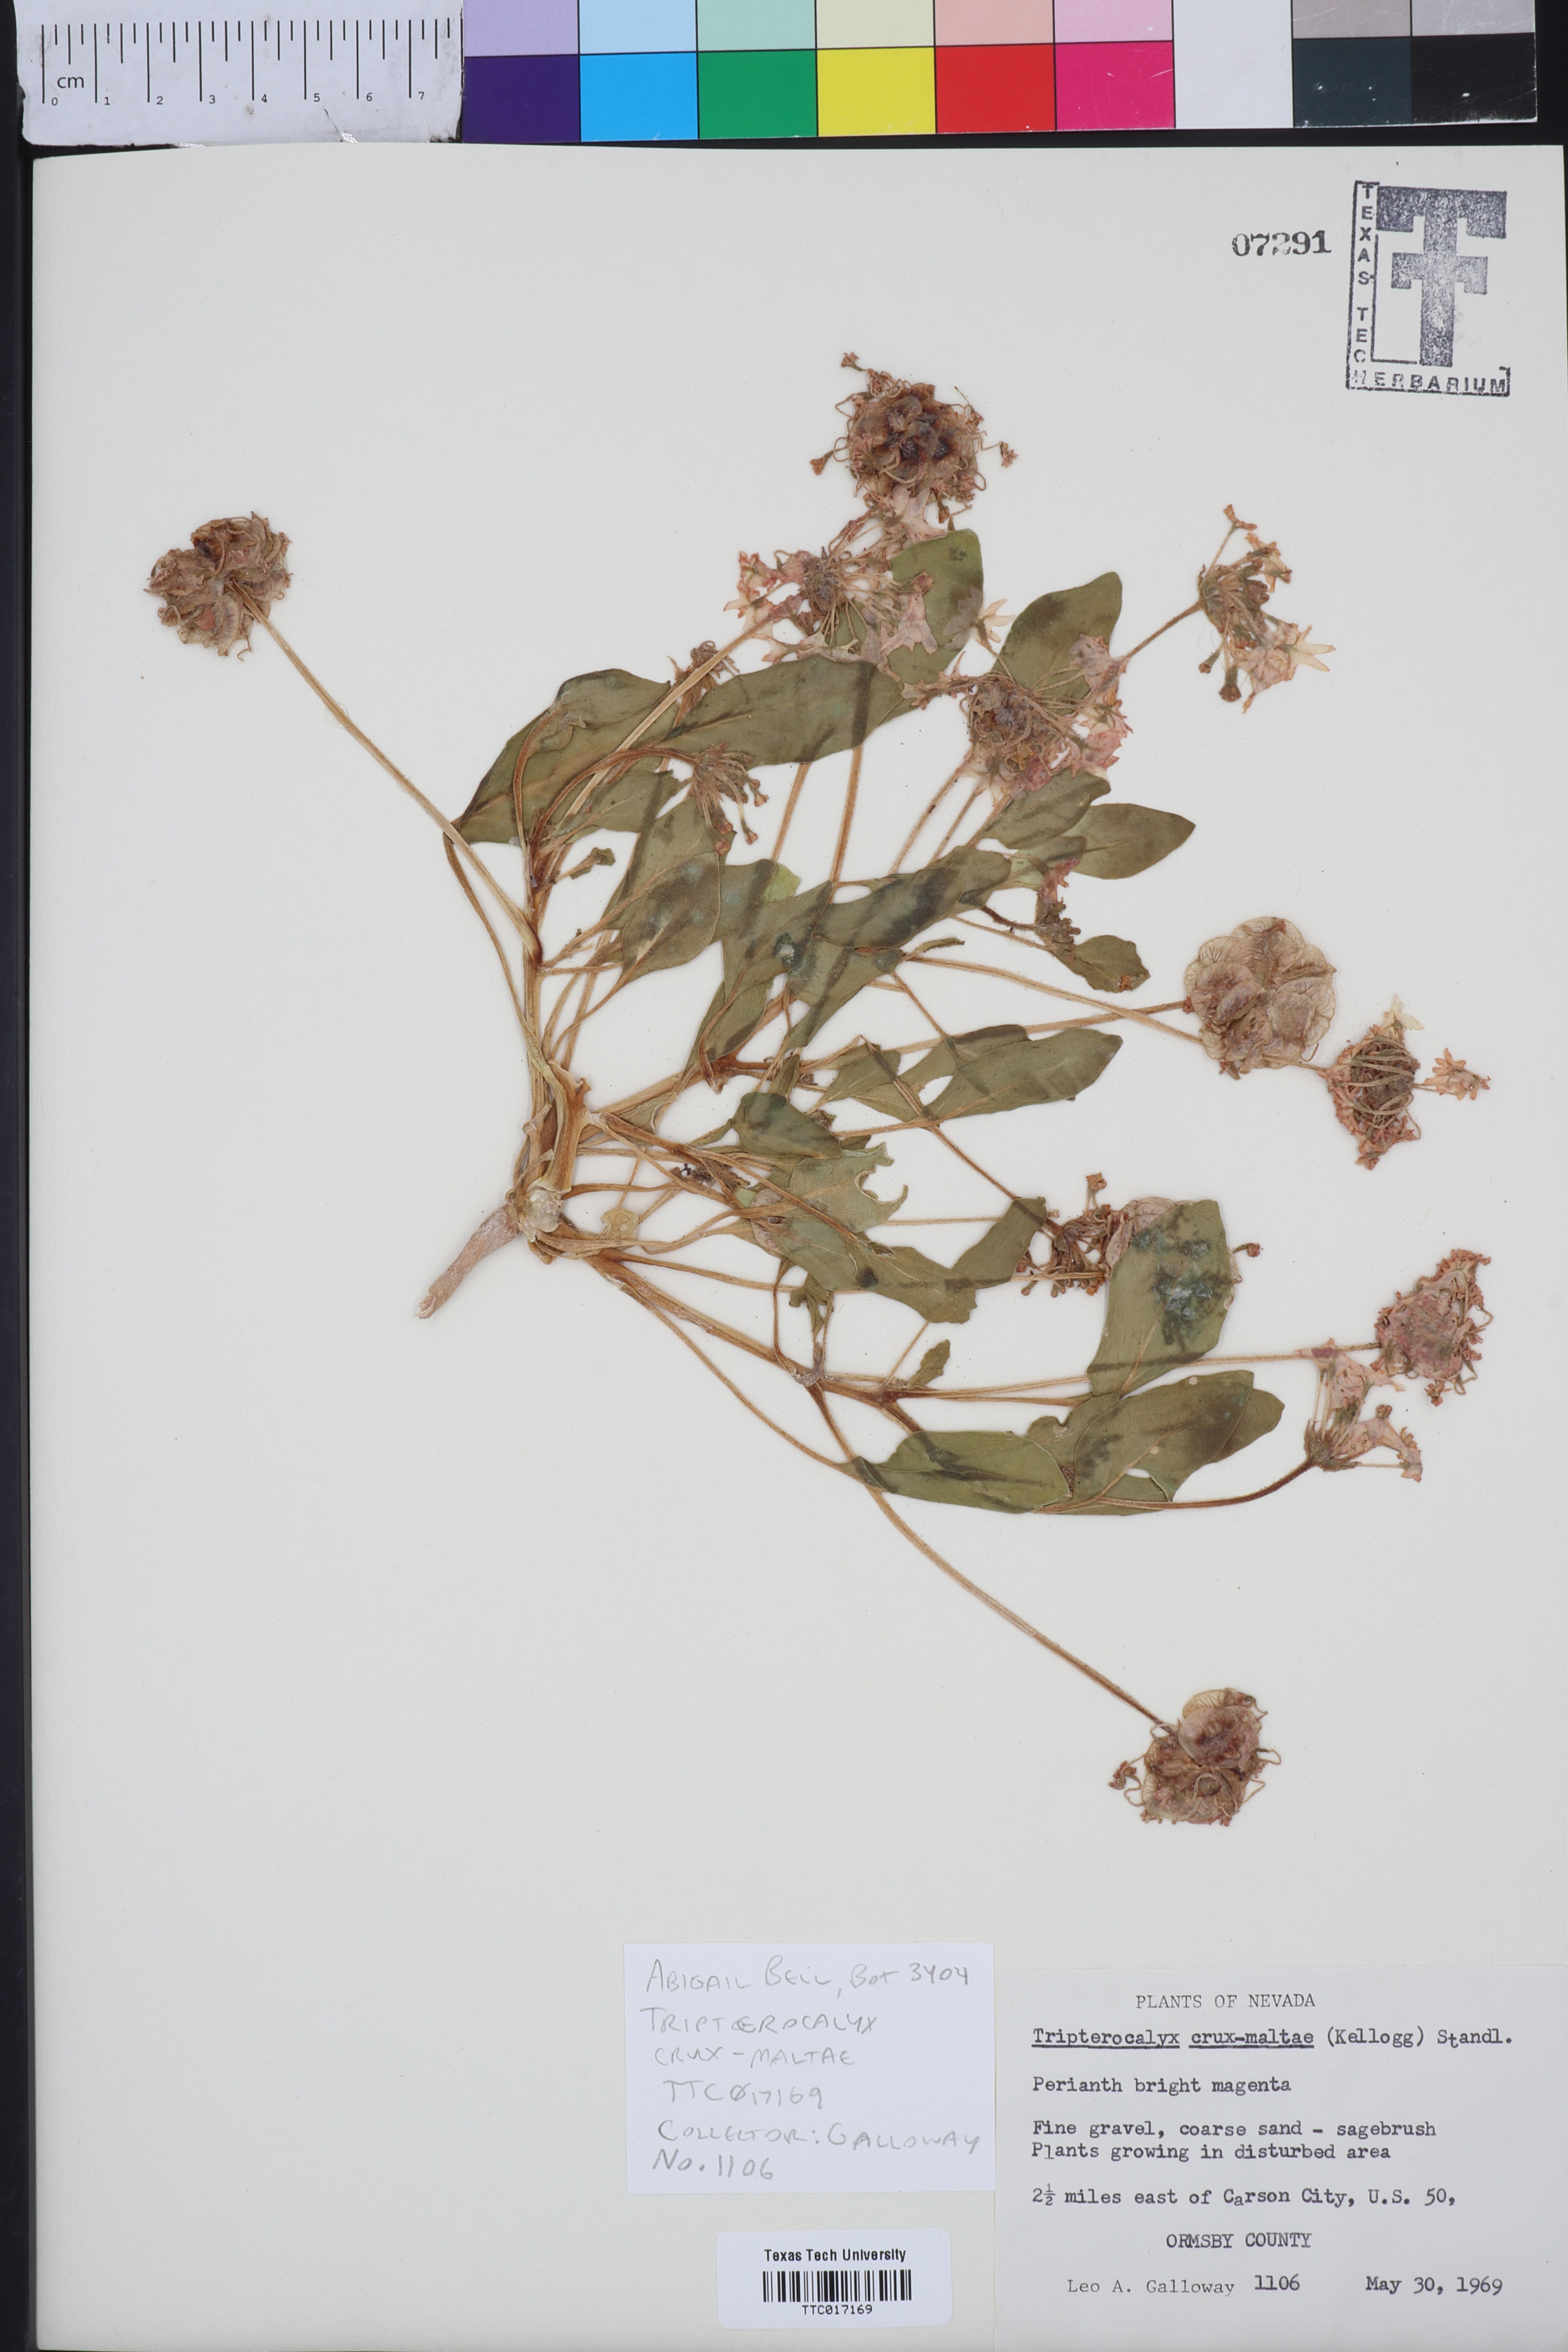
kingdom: Plantae
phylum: Tracheophyta
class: Magnoliopsida
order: Caryophyllales
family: Nyctaginaceae
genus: Tripterocalyx
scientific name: Tripterocalyx crux-maltae
